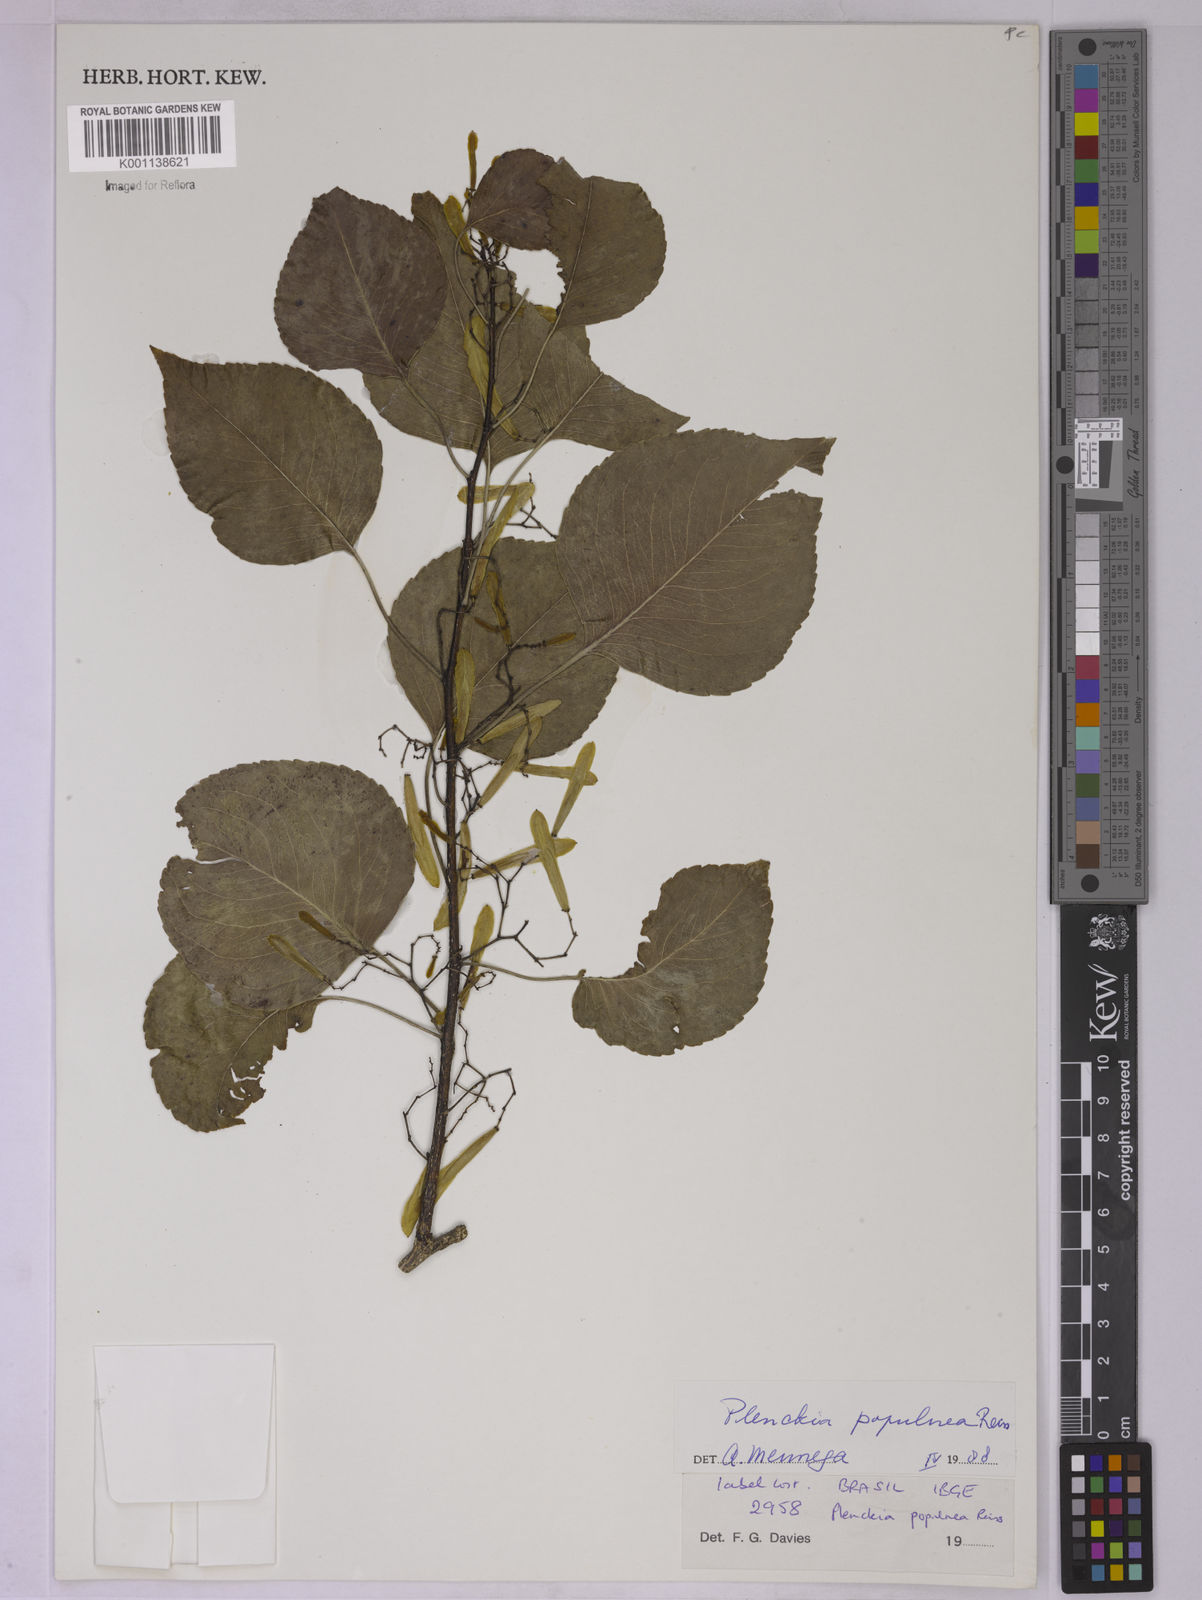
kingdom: Plantae
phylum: Tracheophyta
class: Magnoliopsida
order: Celastrales
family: Celastraceae
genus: Plenckia
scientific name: Plenckia populnea
